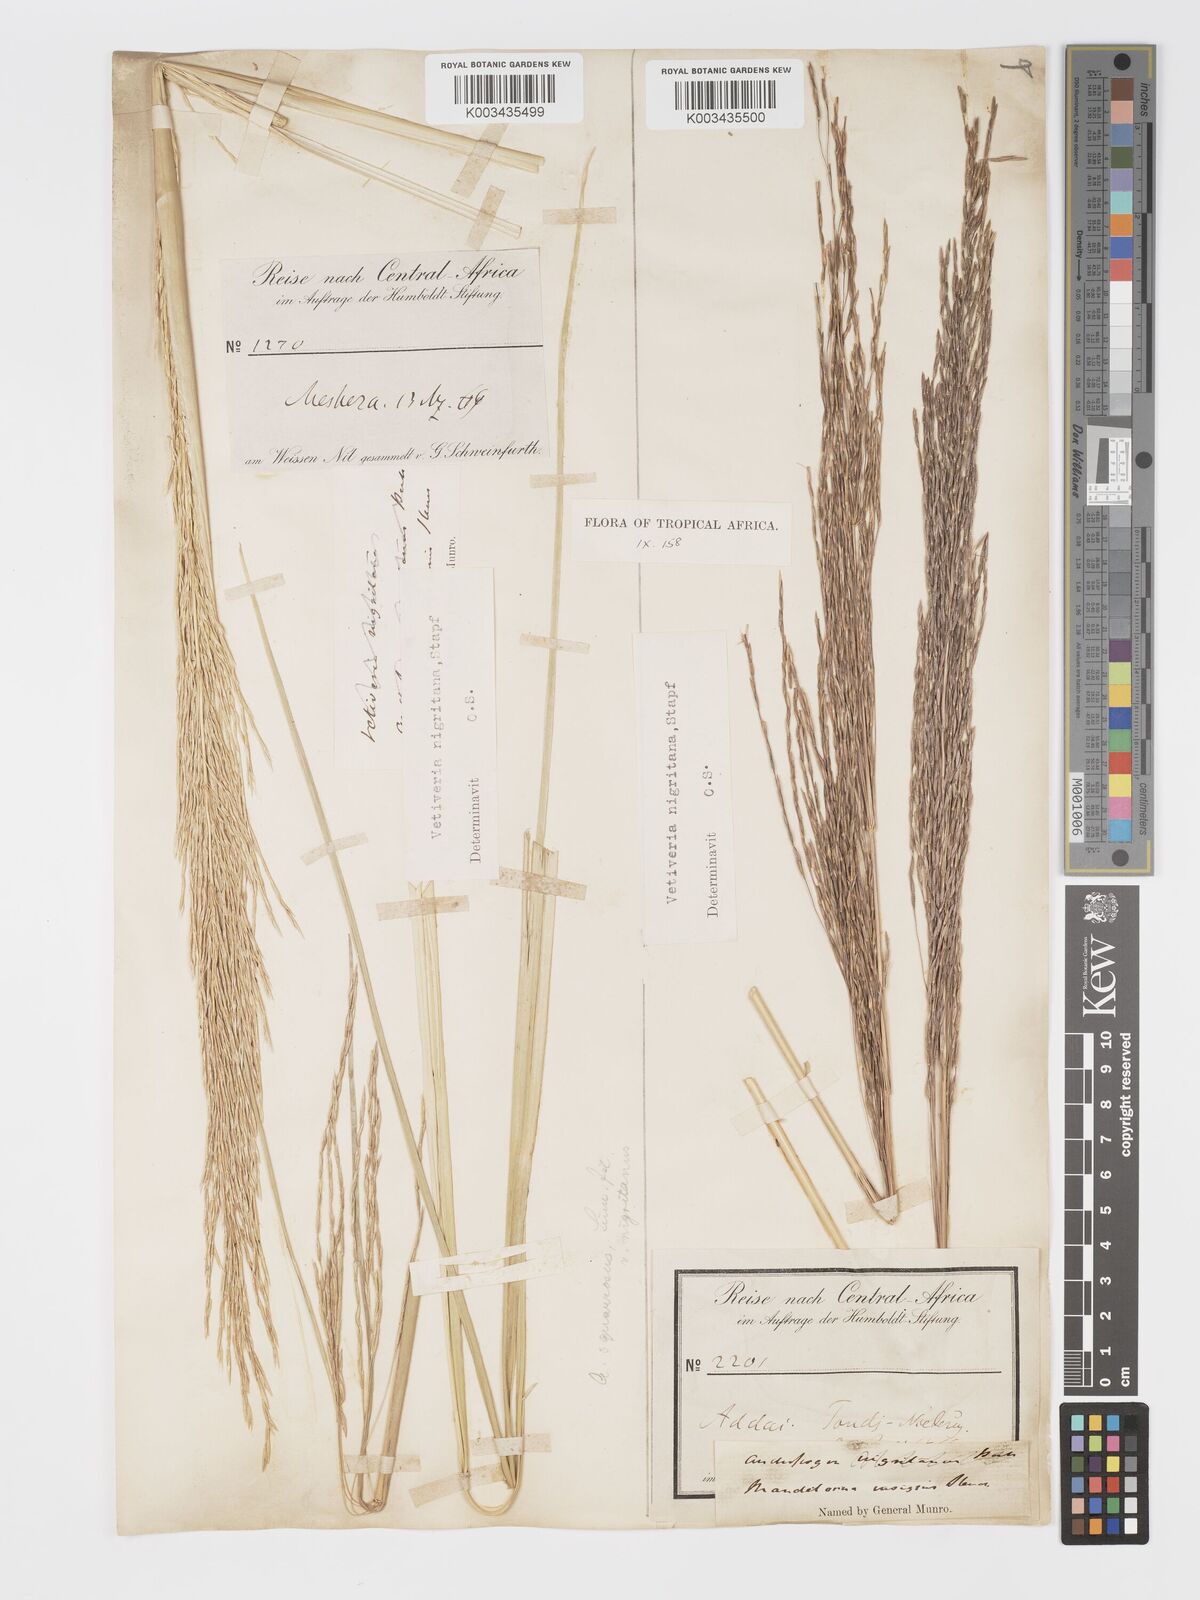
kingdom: Plantae
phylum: Tracheophyta
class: Liliopsida
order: Poales
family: Poaceae
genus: Chrysopogon
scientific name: Chrysopogon nigritanus
